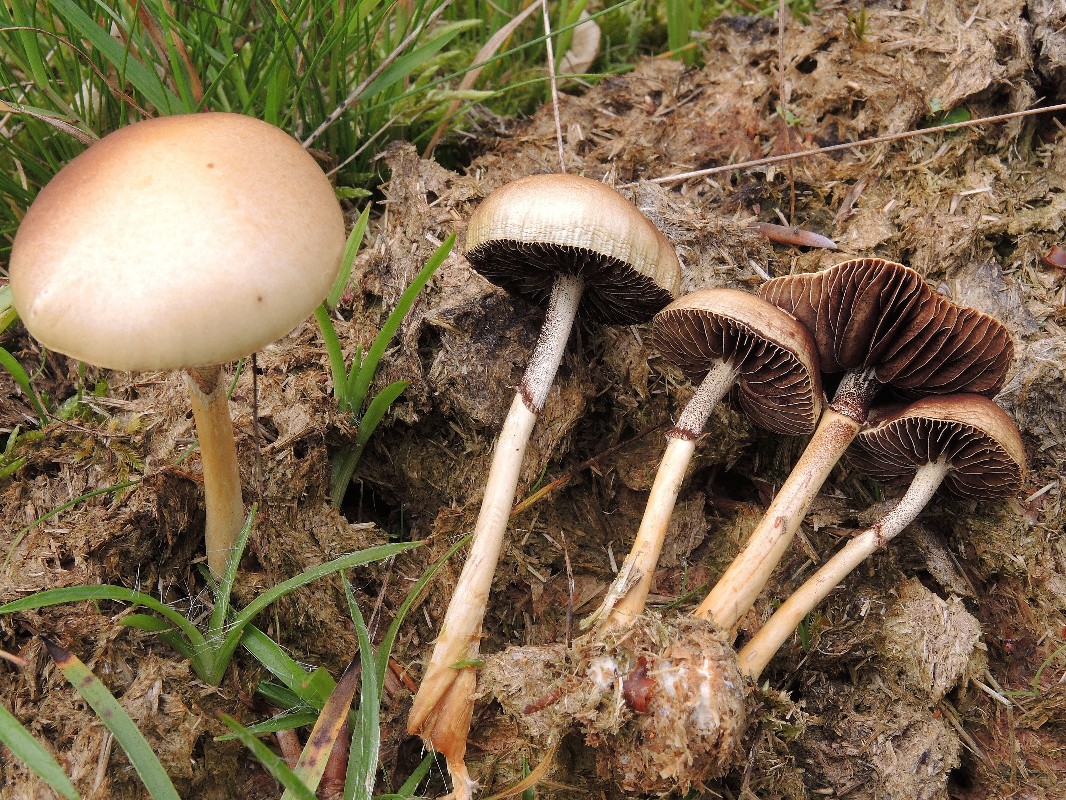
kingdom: Fungi
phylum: Basidiomycota
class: Agaricomycetes
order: Agaricales
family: Strophariaceae
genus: Protostropharia
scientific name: Protostropharia semiglobata
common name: halvkugleformet bredblad
